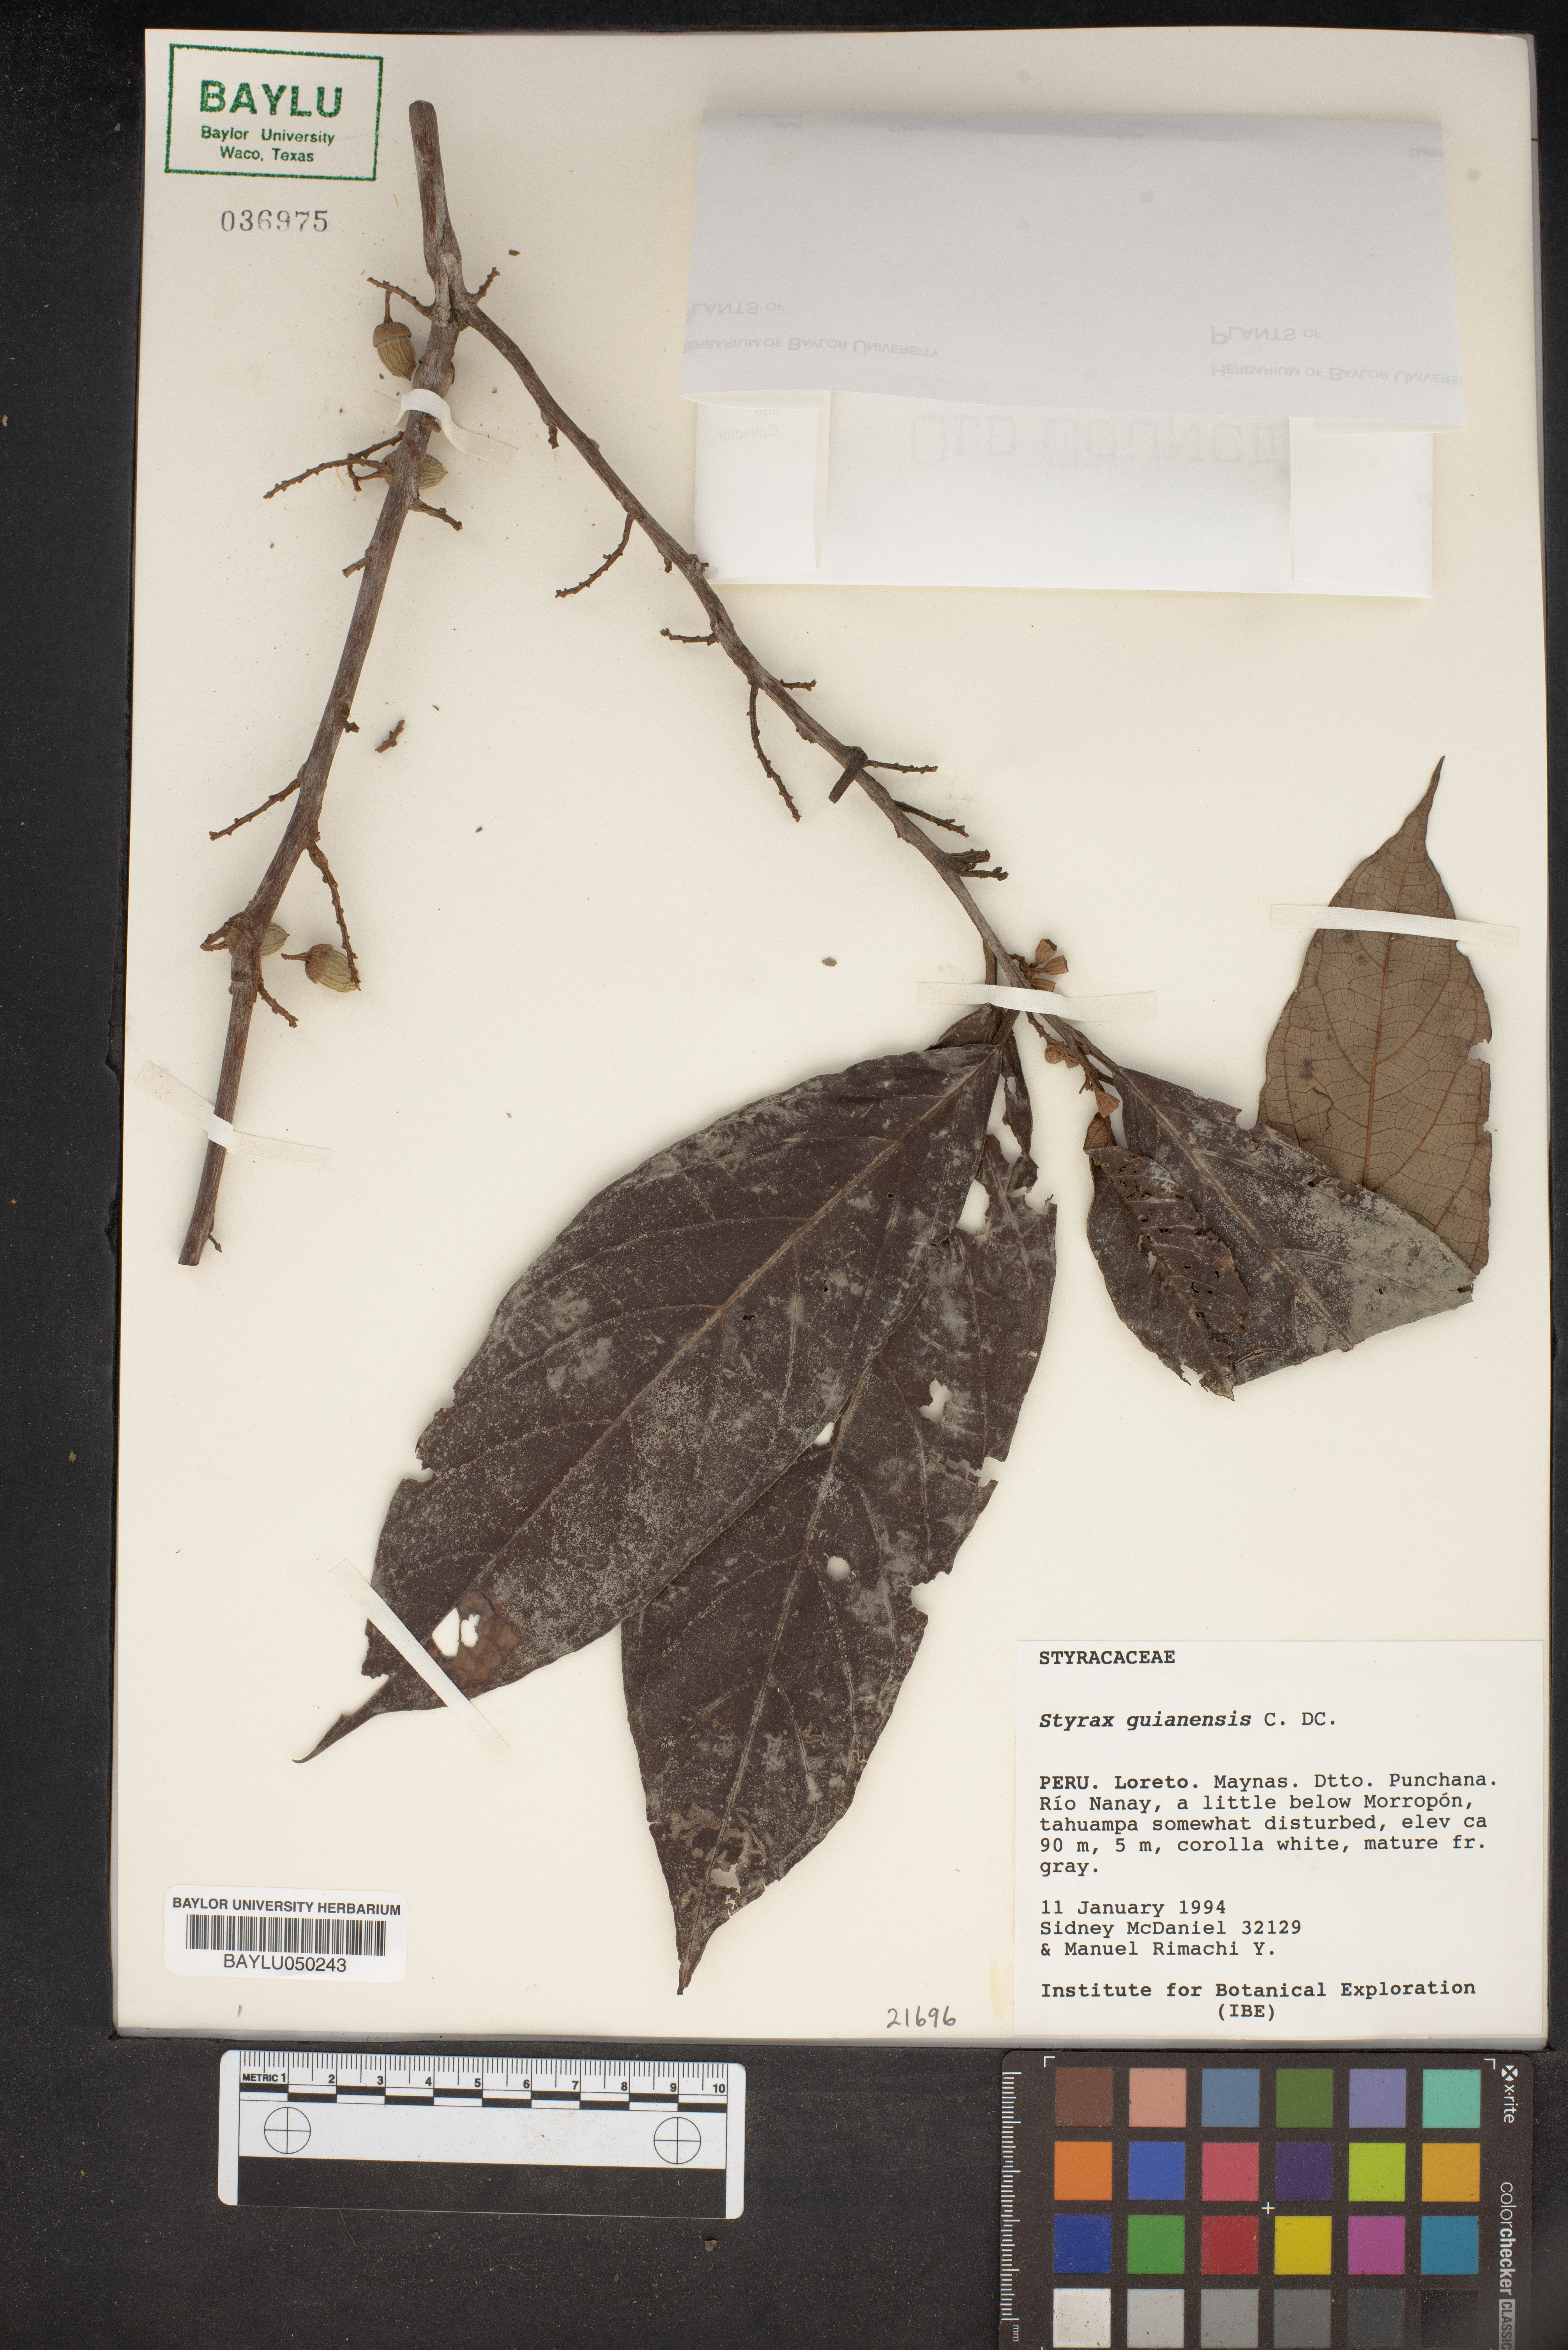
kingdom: Plantae
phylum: Tracheophyta
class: Magnoliopsida
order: Ericales
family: Styracaceae
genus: Styrax
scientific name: Styrax guyanensis
